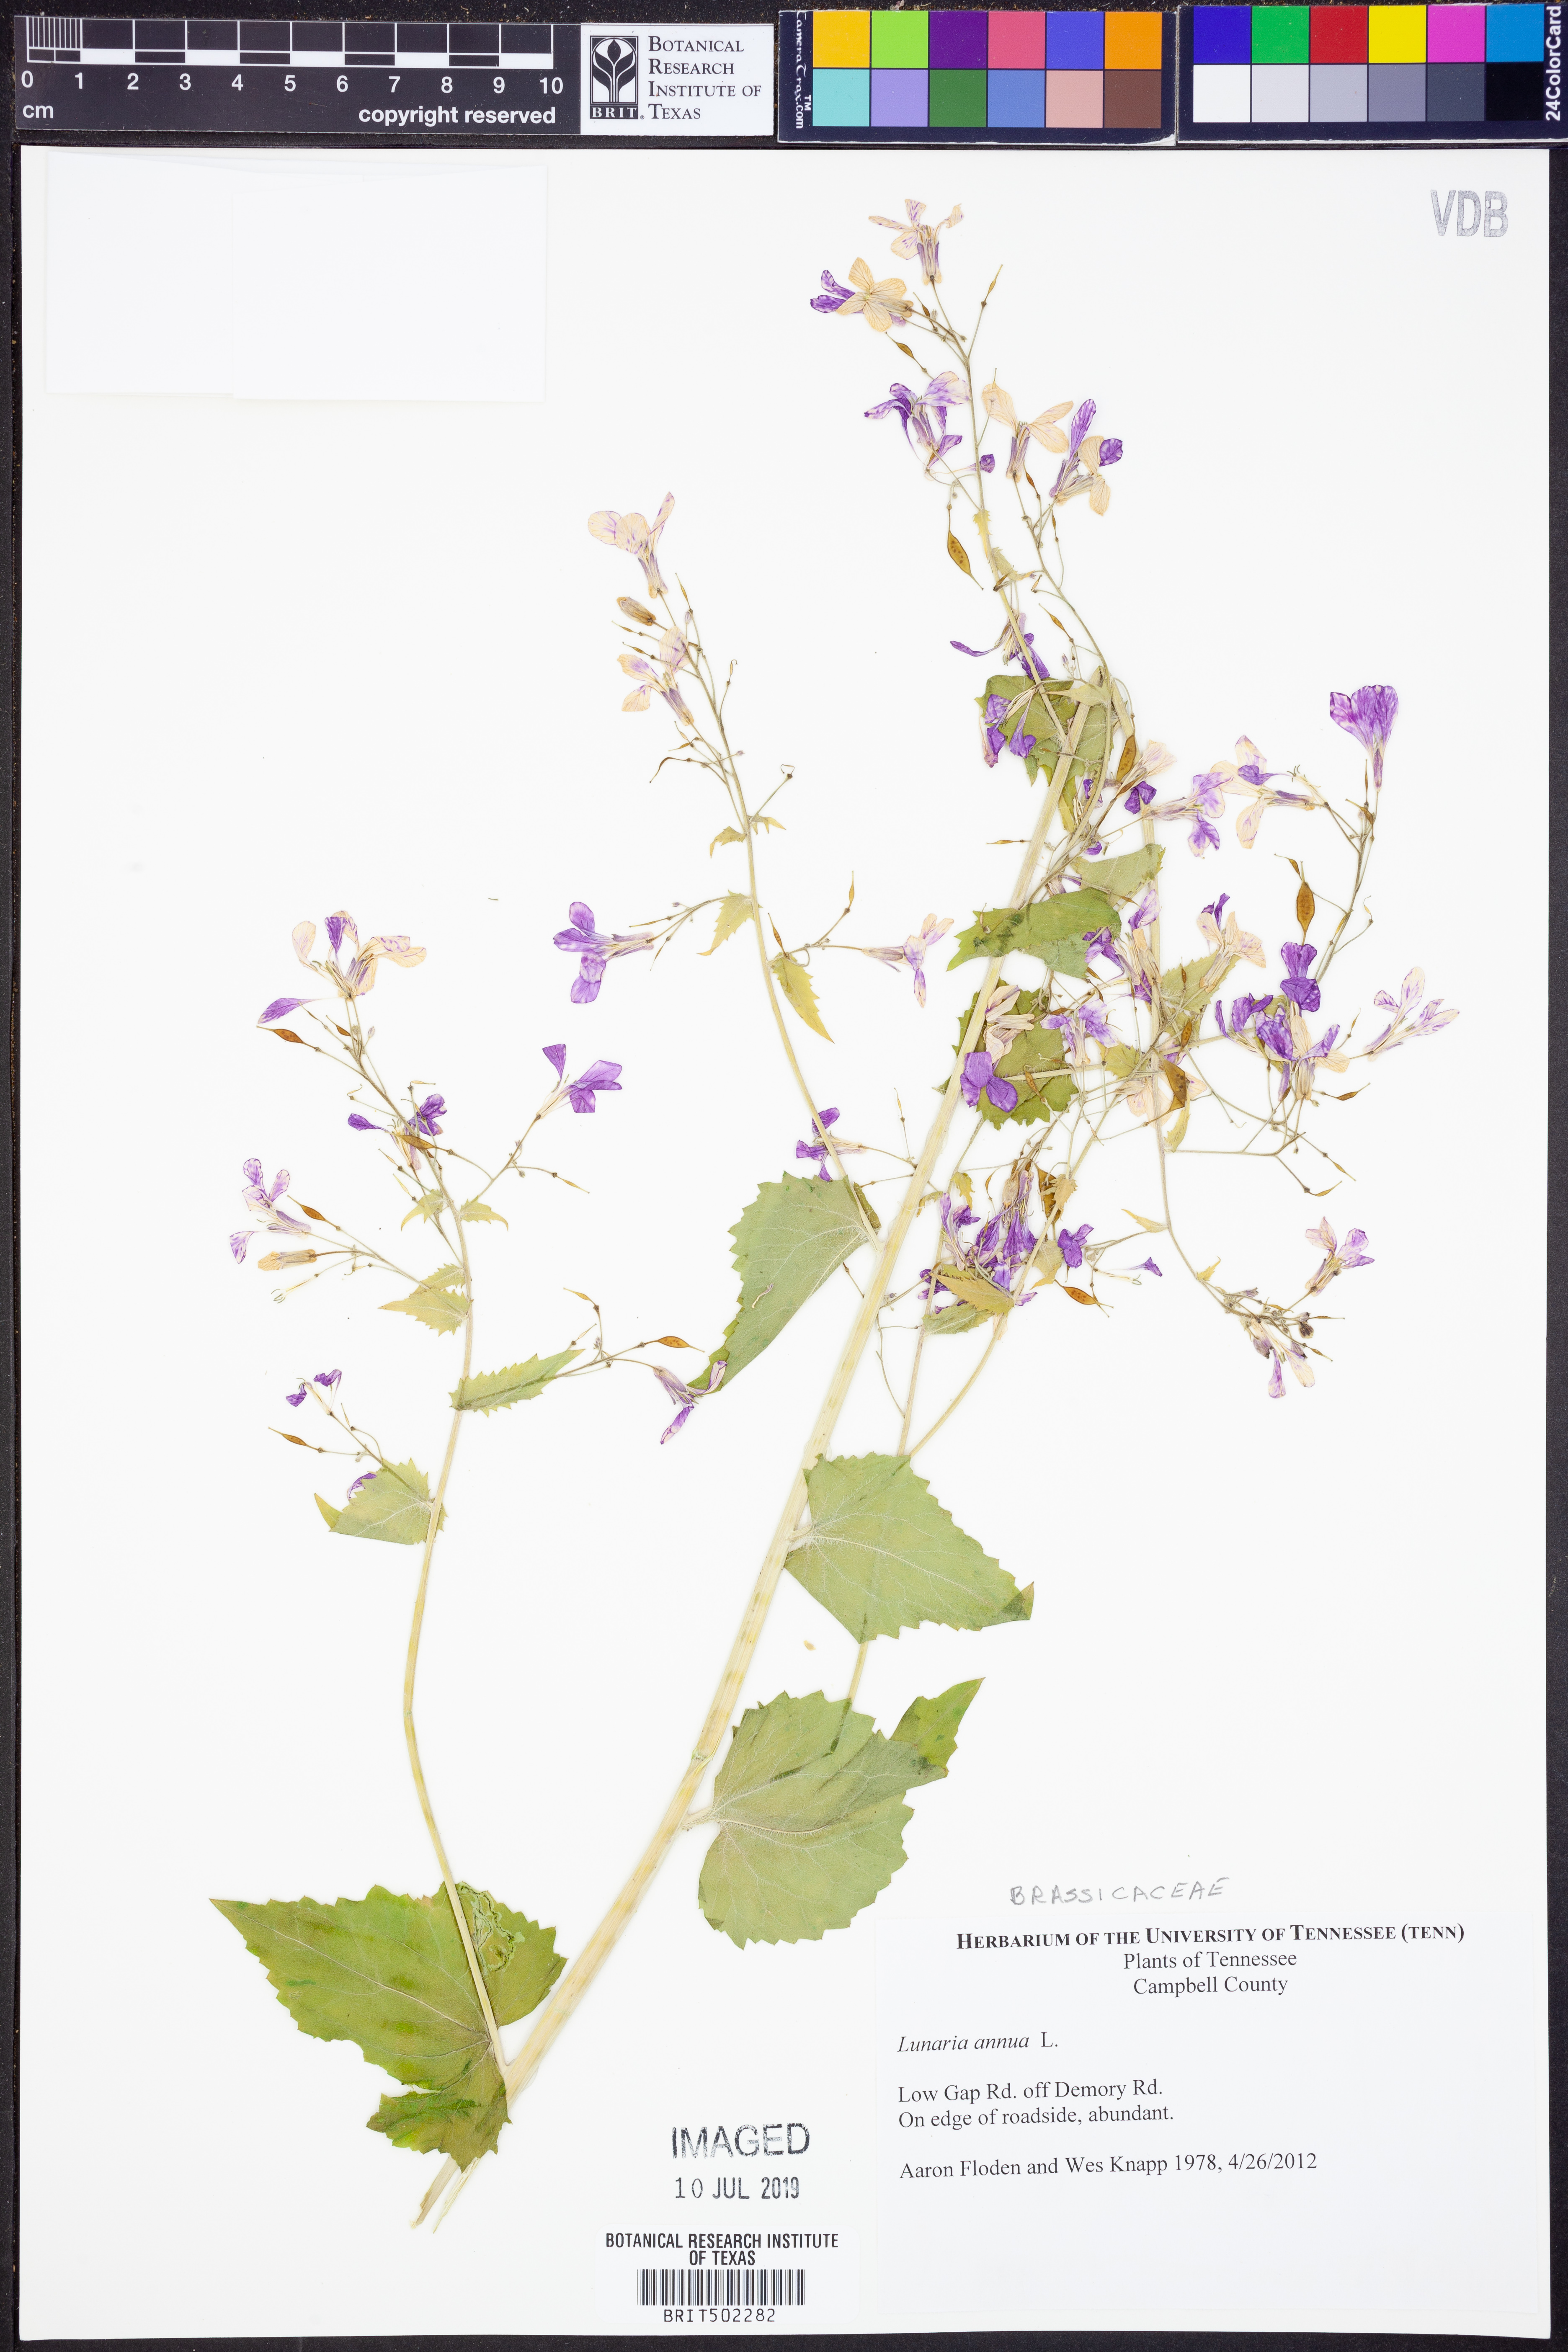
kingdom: Plantae
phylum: Tracheophyta
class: Magnoliopsida
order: Brassicales
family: Brassicaceae
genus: Lunaria
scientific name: Lunaria annua
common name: Honesty
